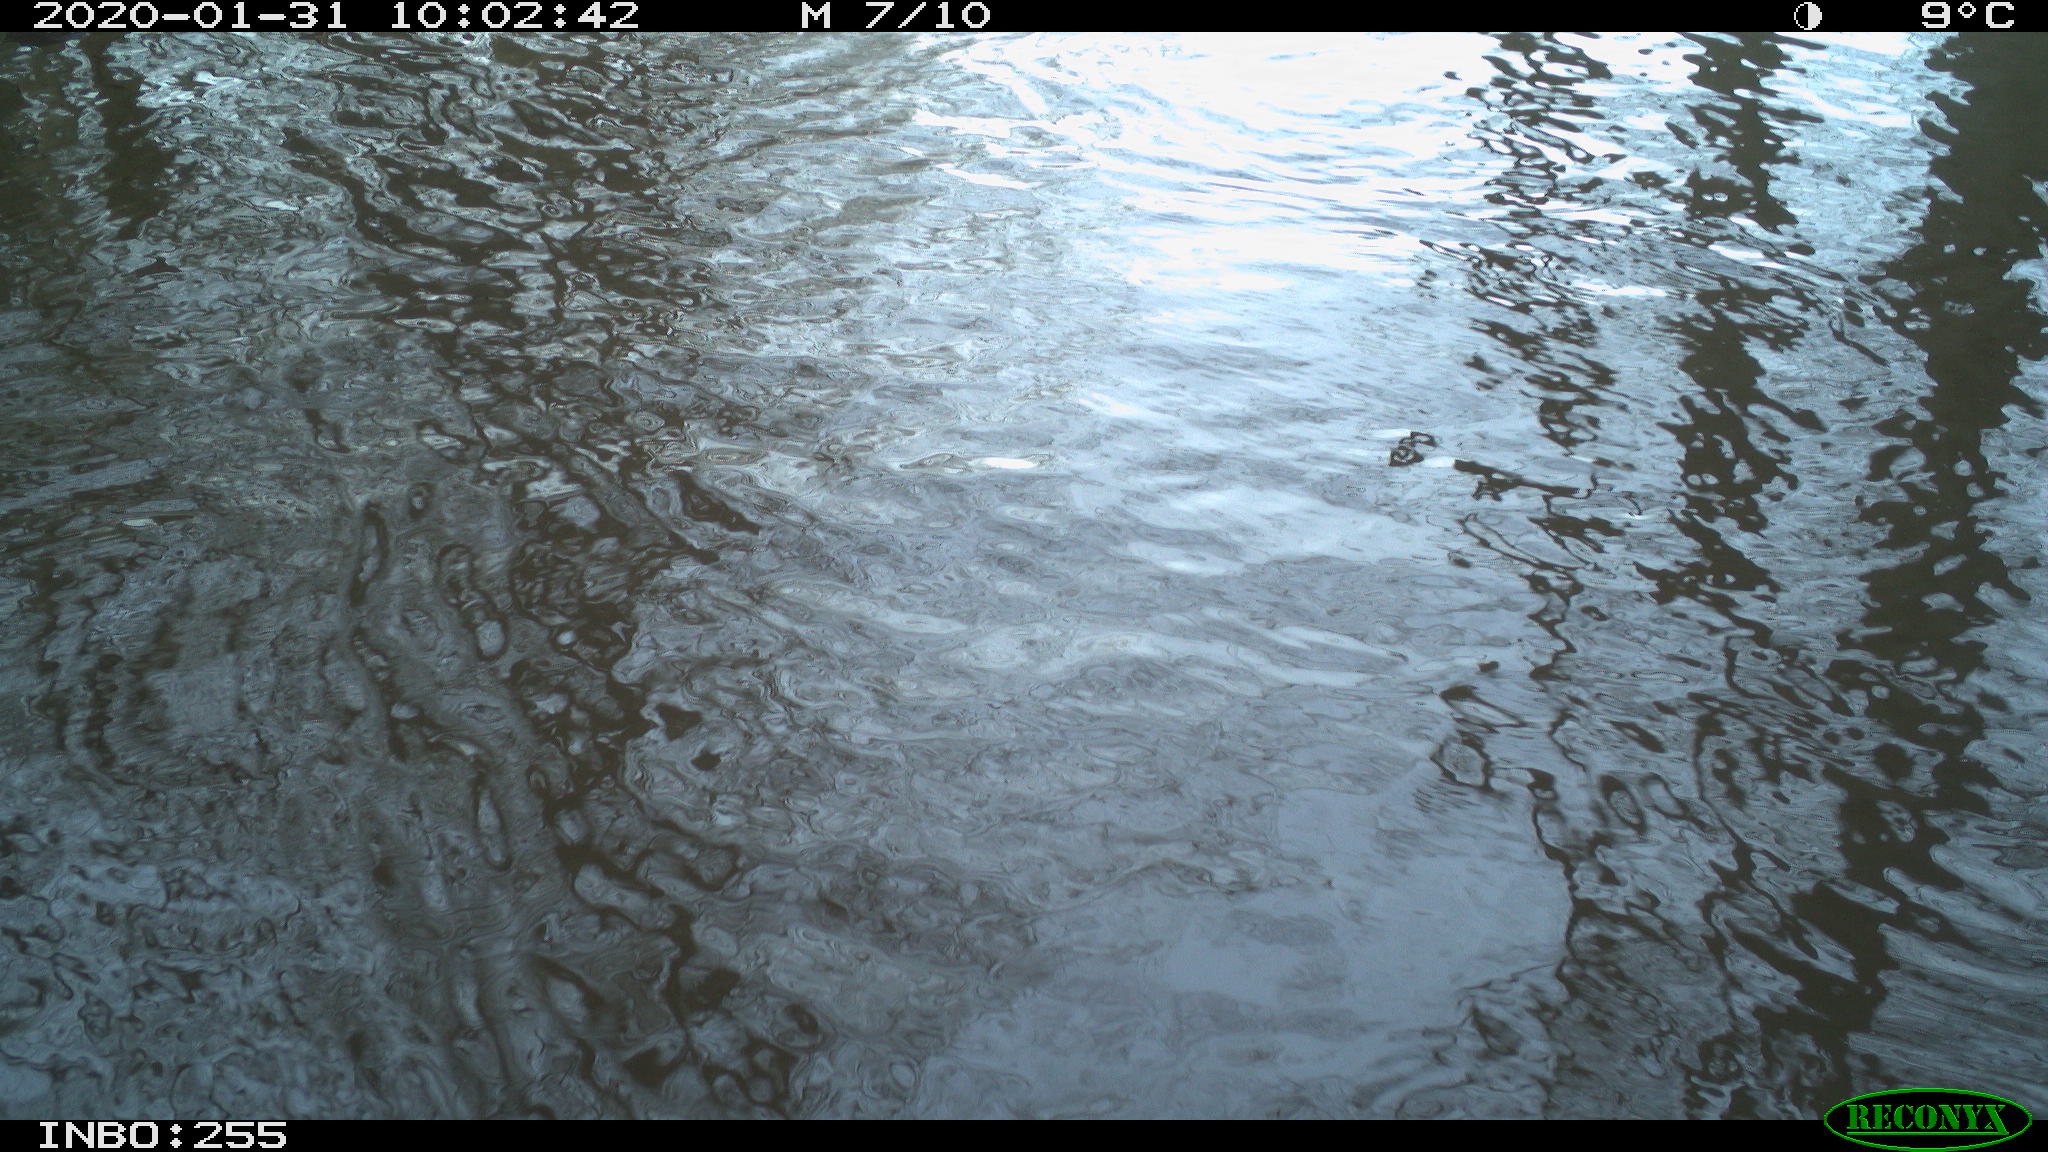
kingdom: Animalia
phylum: Chordata
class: Aves
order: Gruiformes
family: Rallidae
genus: Fulica
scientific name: Fulica atra
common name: Eurasian coot
